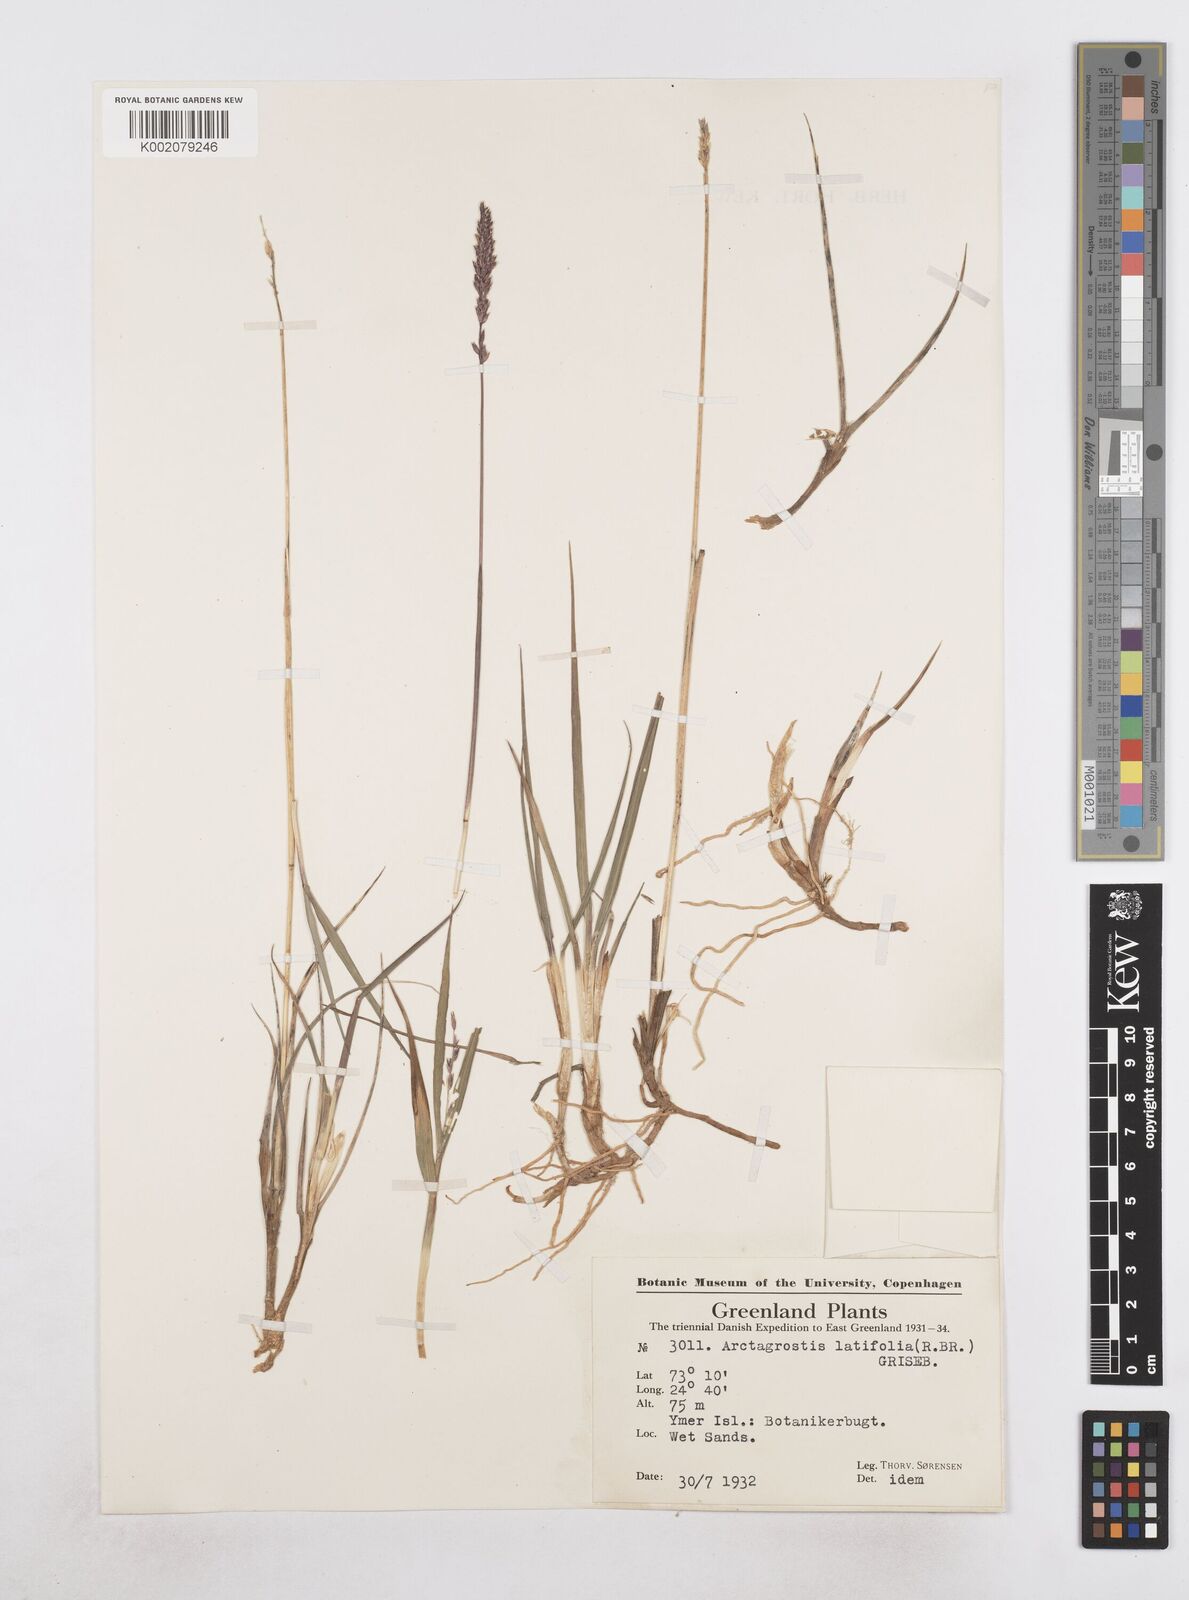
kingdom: Plantae
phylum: Tracheophyta
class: Liliopsida
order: Poales
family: Poaceae
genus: Arctagrostis
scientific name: Arctagrostis latifolia
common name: Arctic grass
